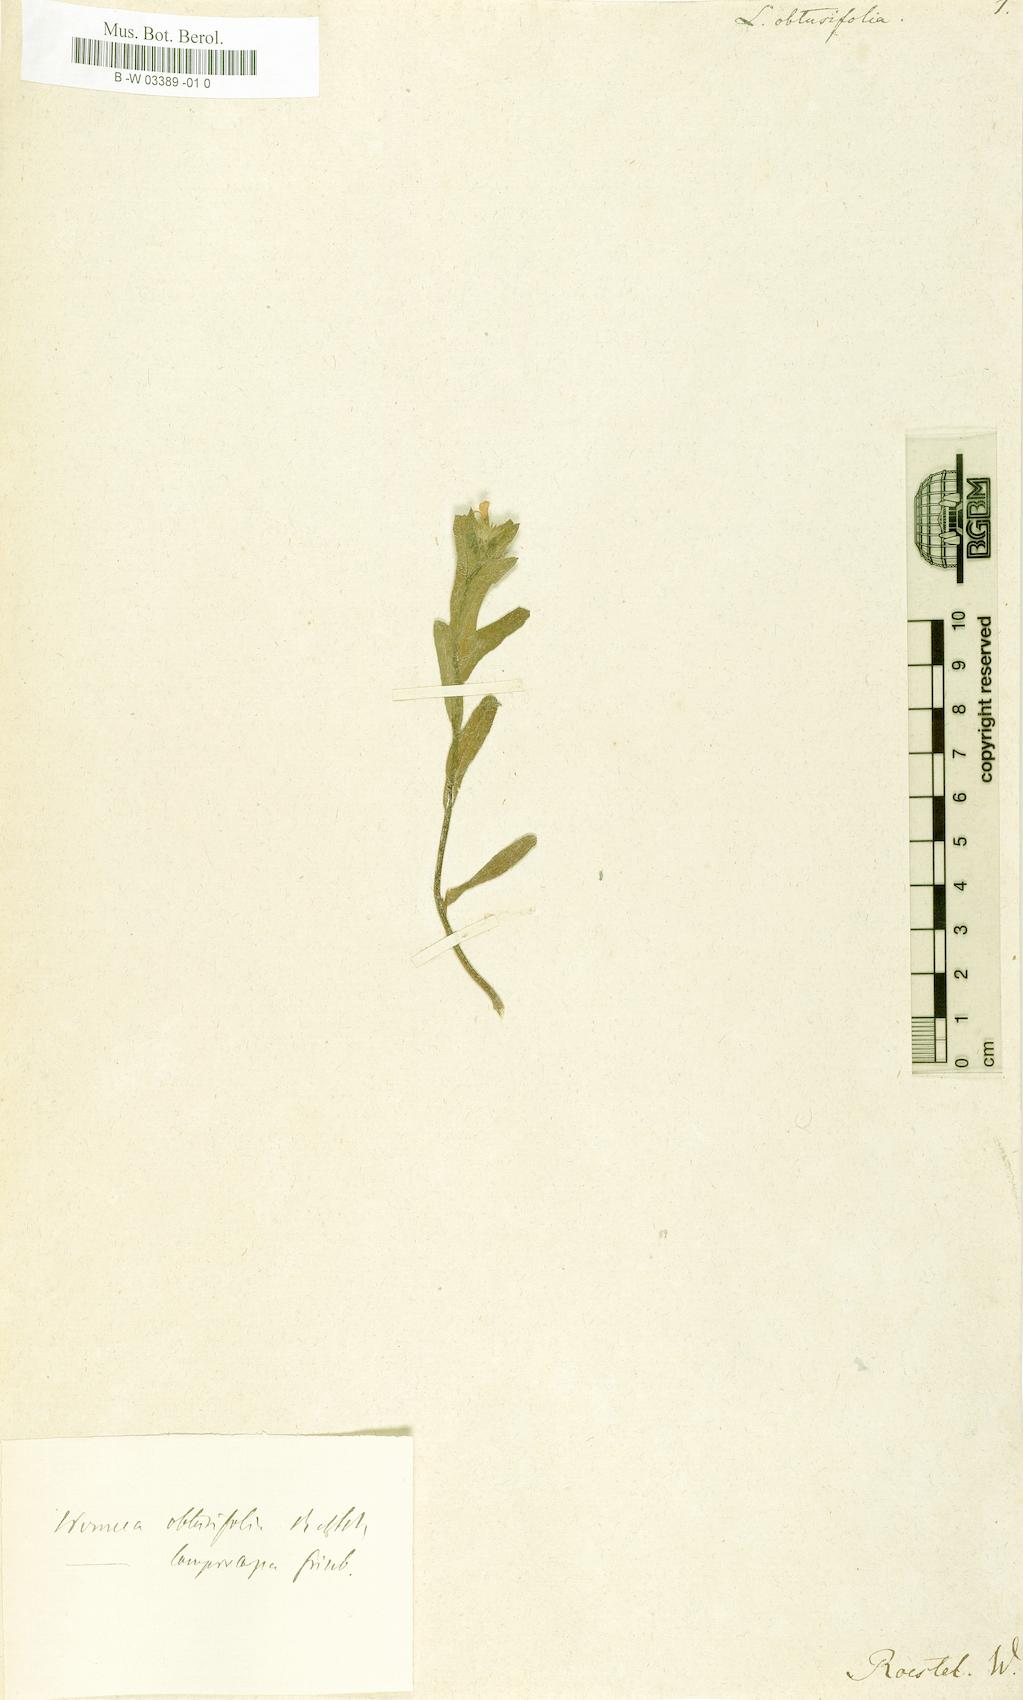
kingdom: Plantae
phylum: Tracheophyta
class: Magnoliopsida
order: Boraginales
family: Boraginaceae
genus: Melanortocarya
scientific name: Melanortocarya obtusifolia
